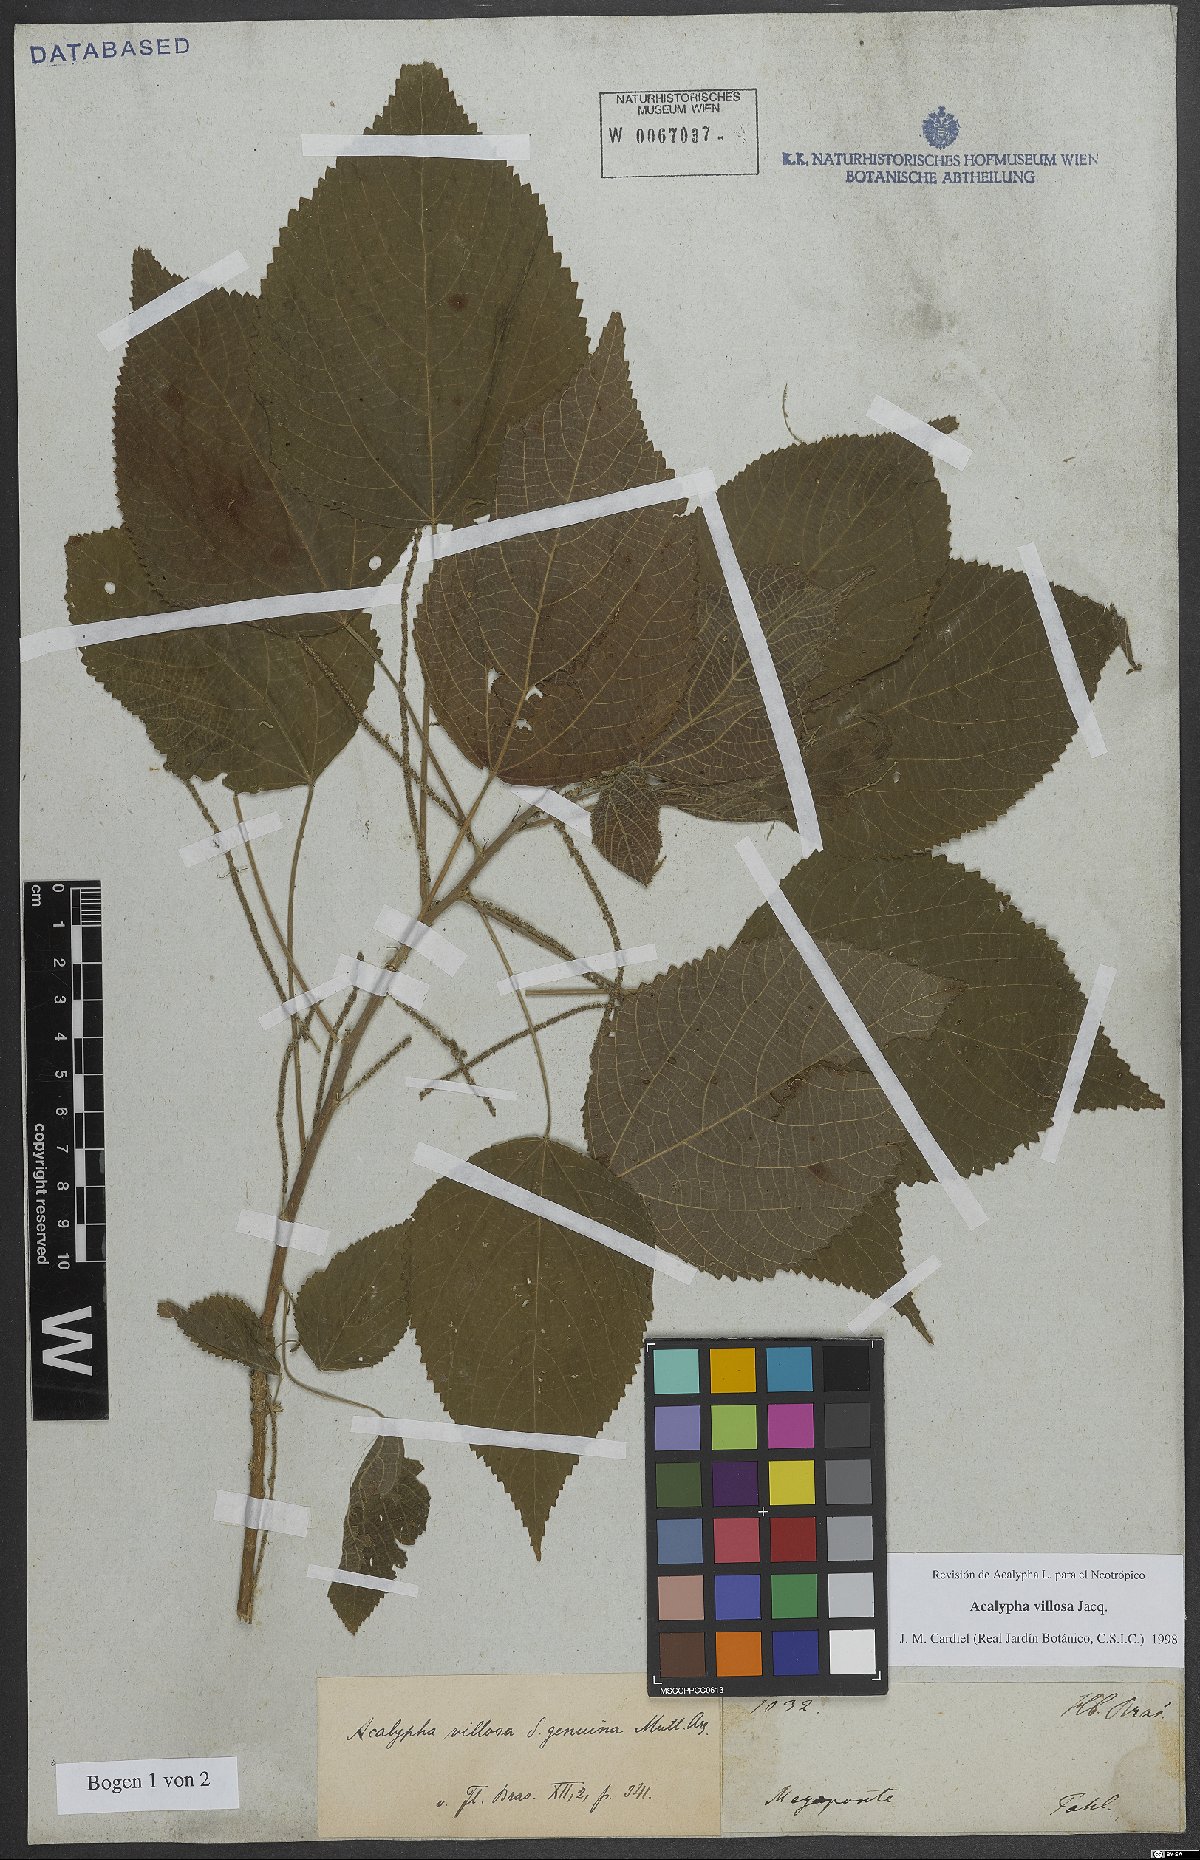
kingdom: Plantae
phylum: Tracheophyta
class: Magnoliopsida
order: Malpighiales
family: Euphorbiaceae
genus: Acalypha
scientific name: Acalypha villosa
